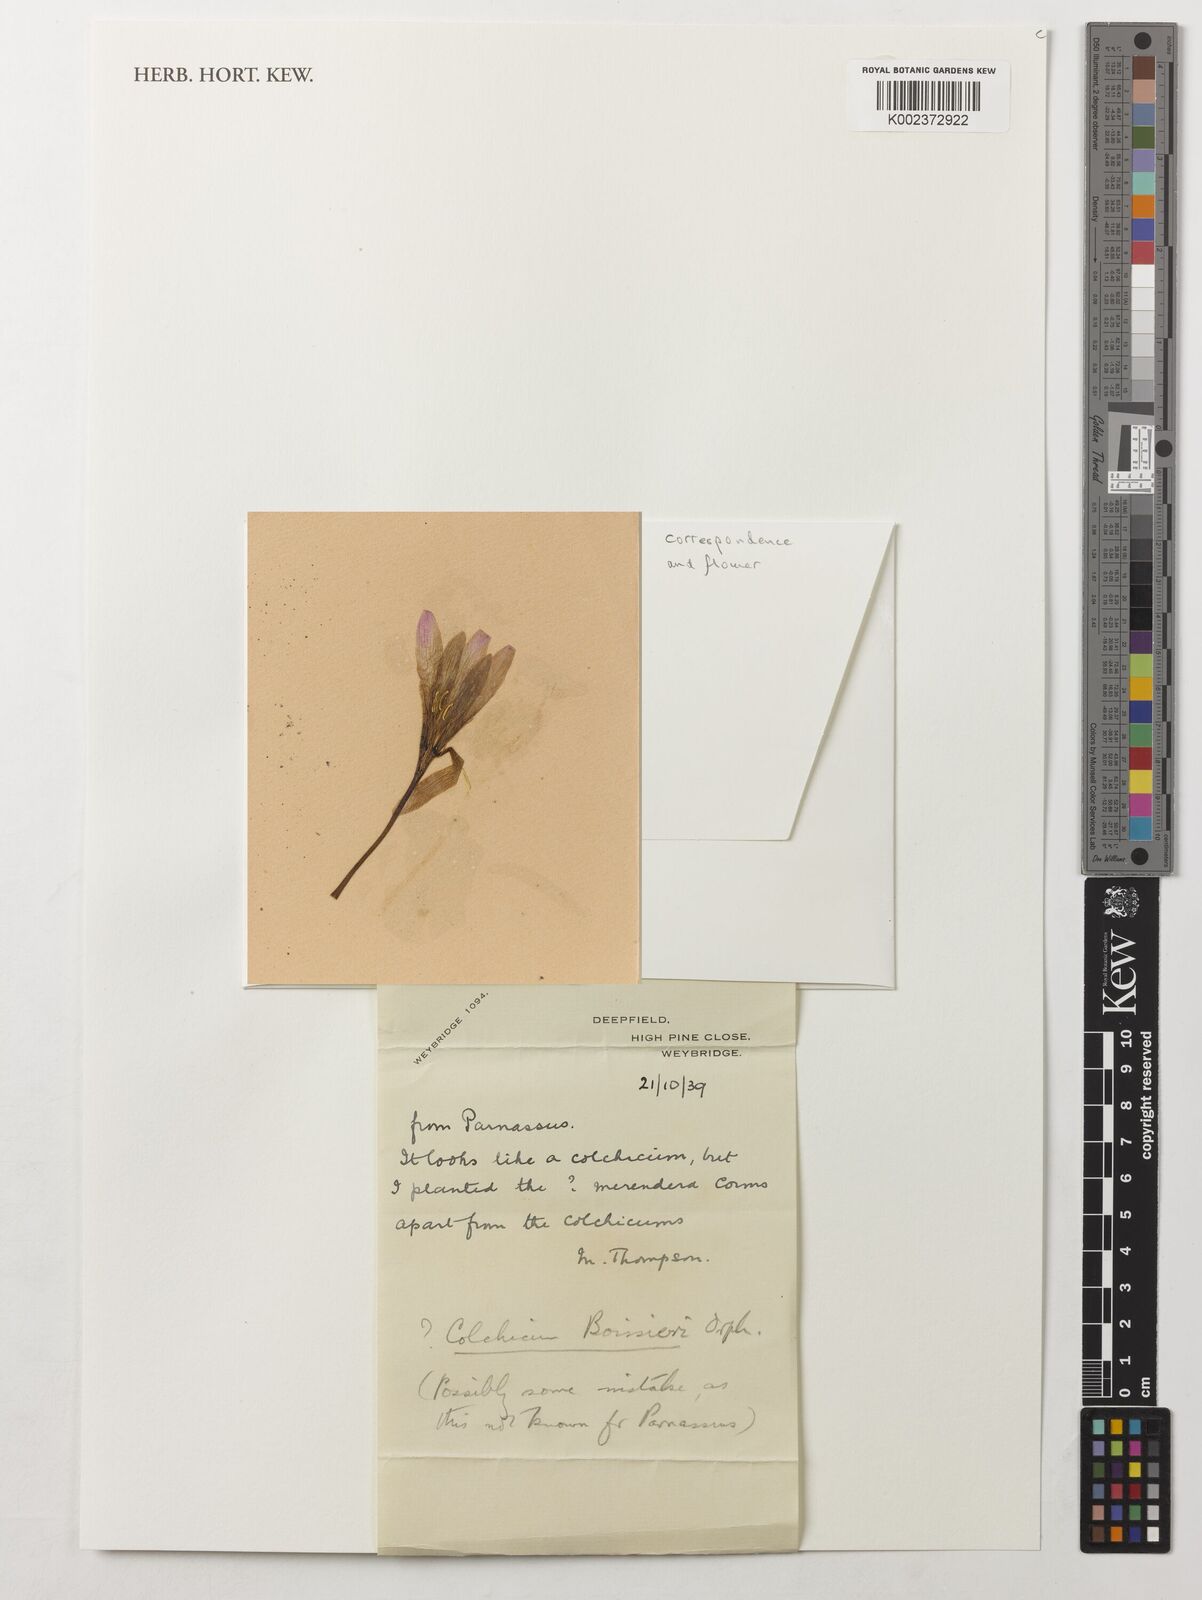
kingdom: Plantae
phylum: Tracheophyta
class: Liliopsida
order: Liliales
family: Colchicaceae
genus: Colchicum
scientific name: Colchicum boissieri
